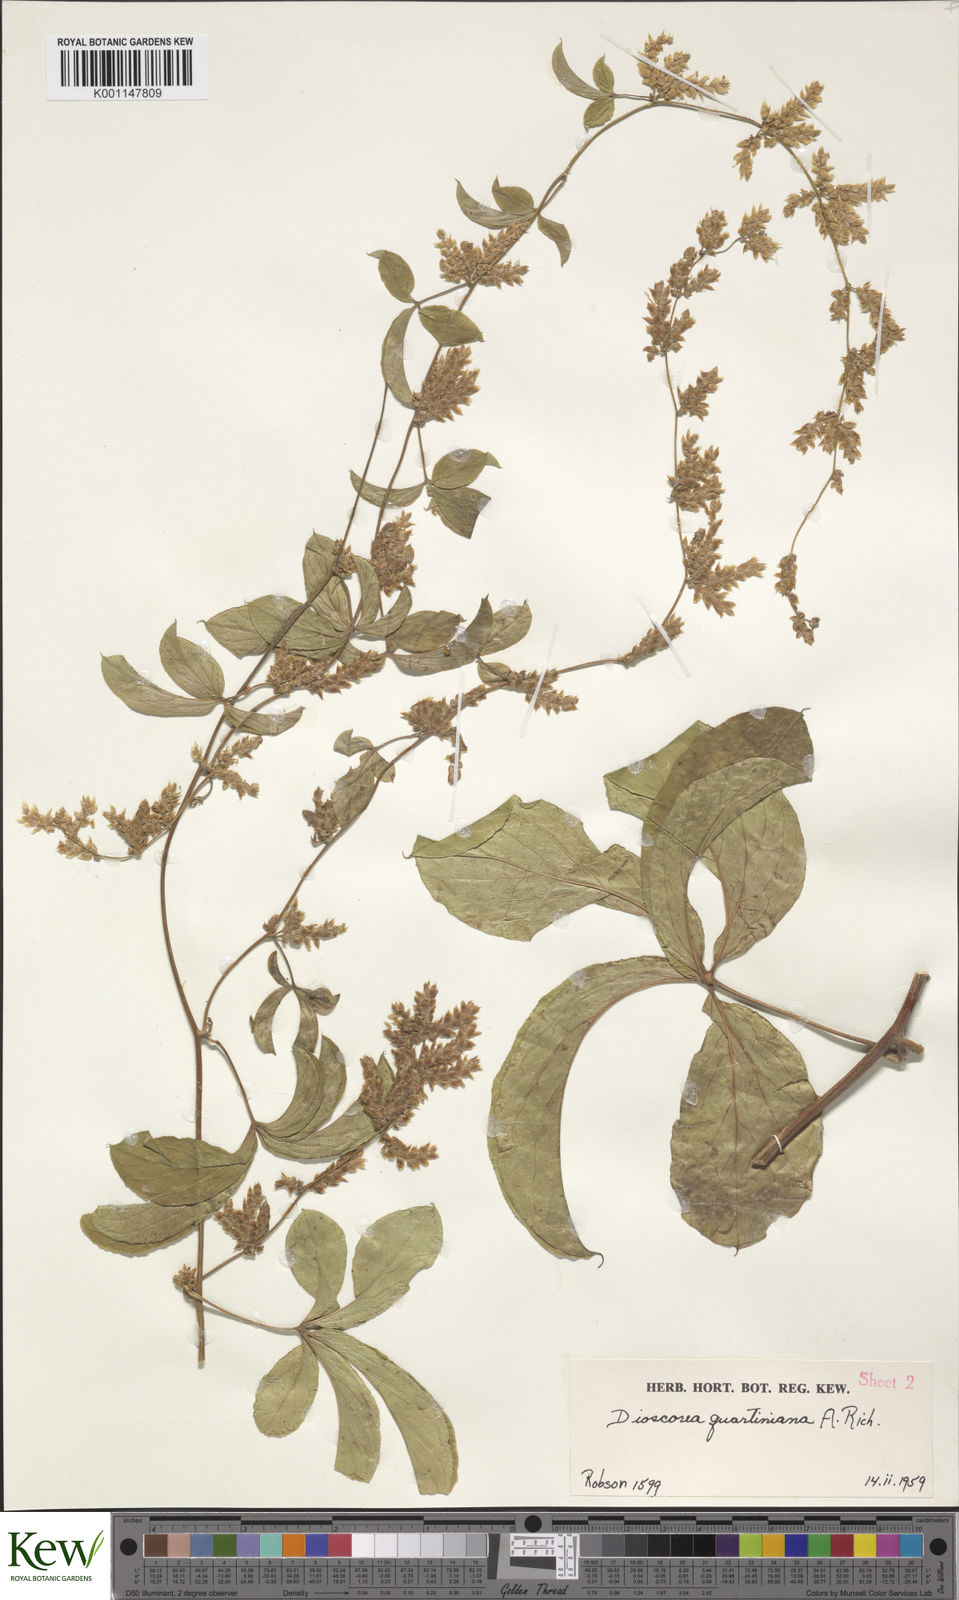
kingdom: Plantae
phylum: Tracheophyta
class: Liliopsida
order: Dioscoreales
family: Dioscoreaceae
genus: Dioscorea
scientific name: Dioscorea quartiniana
